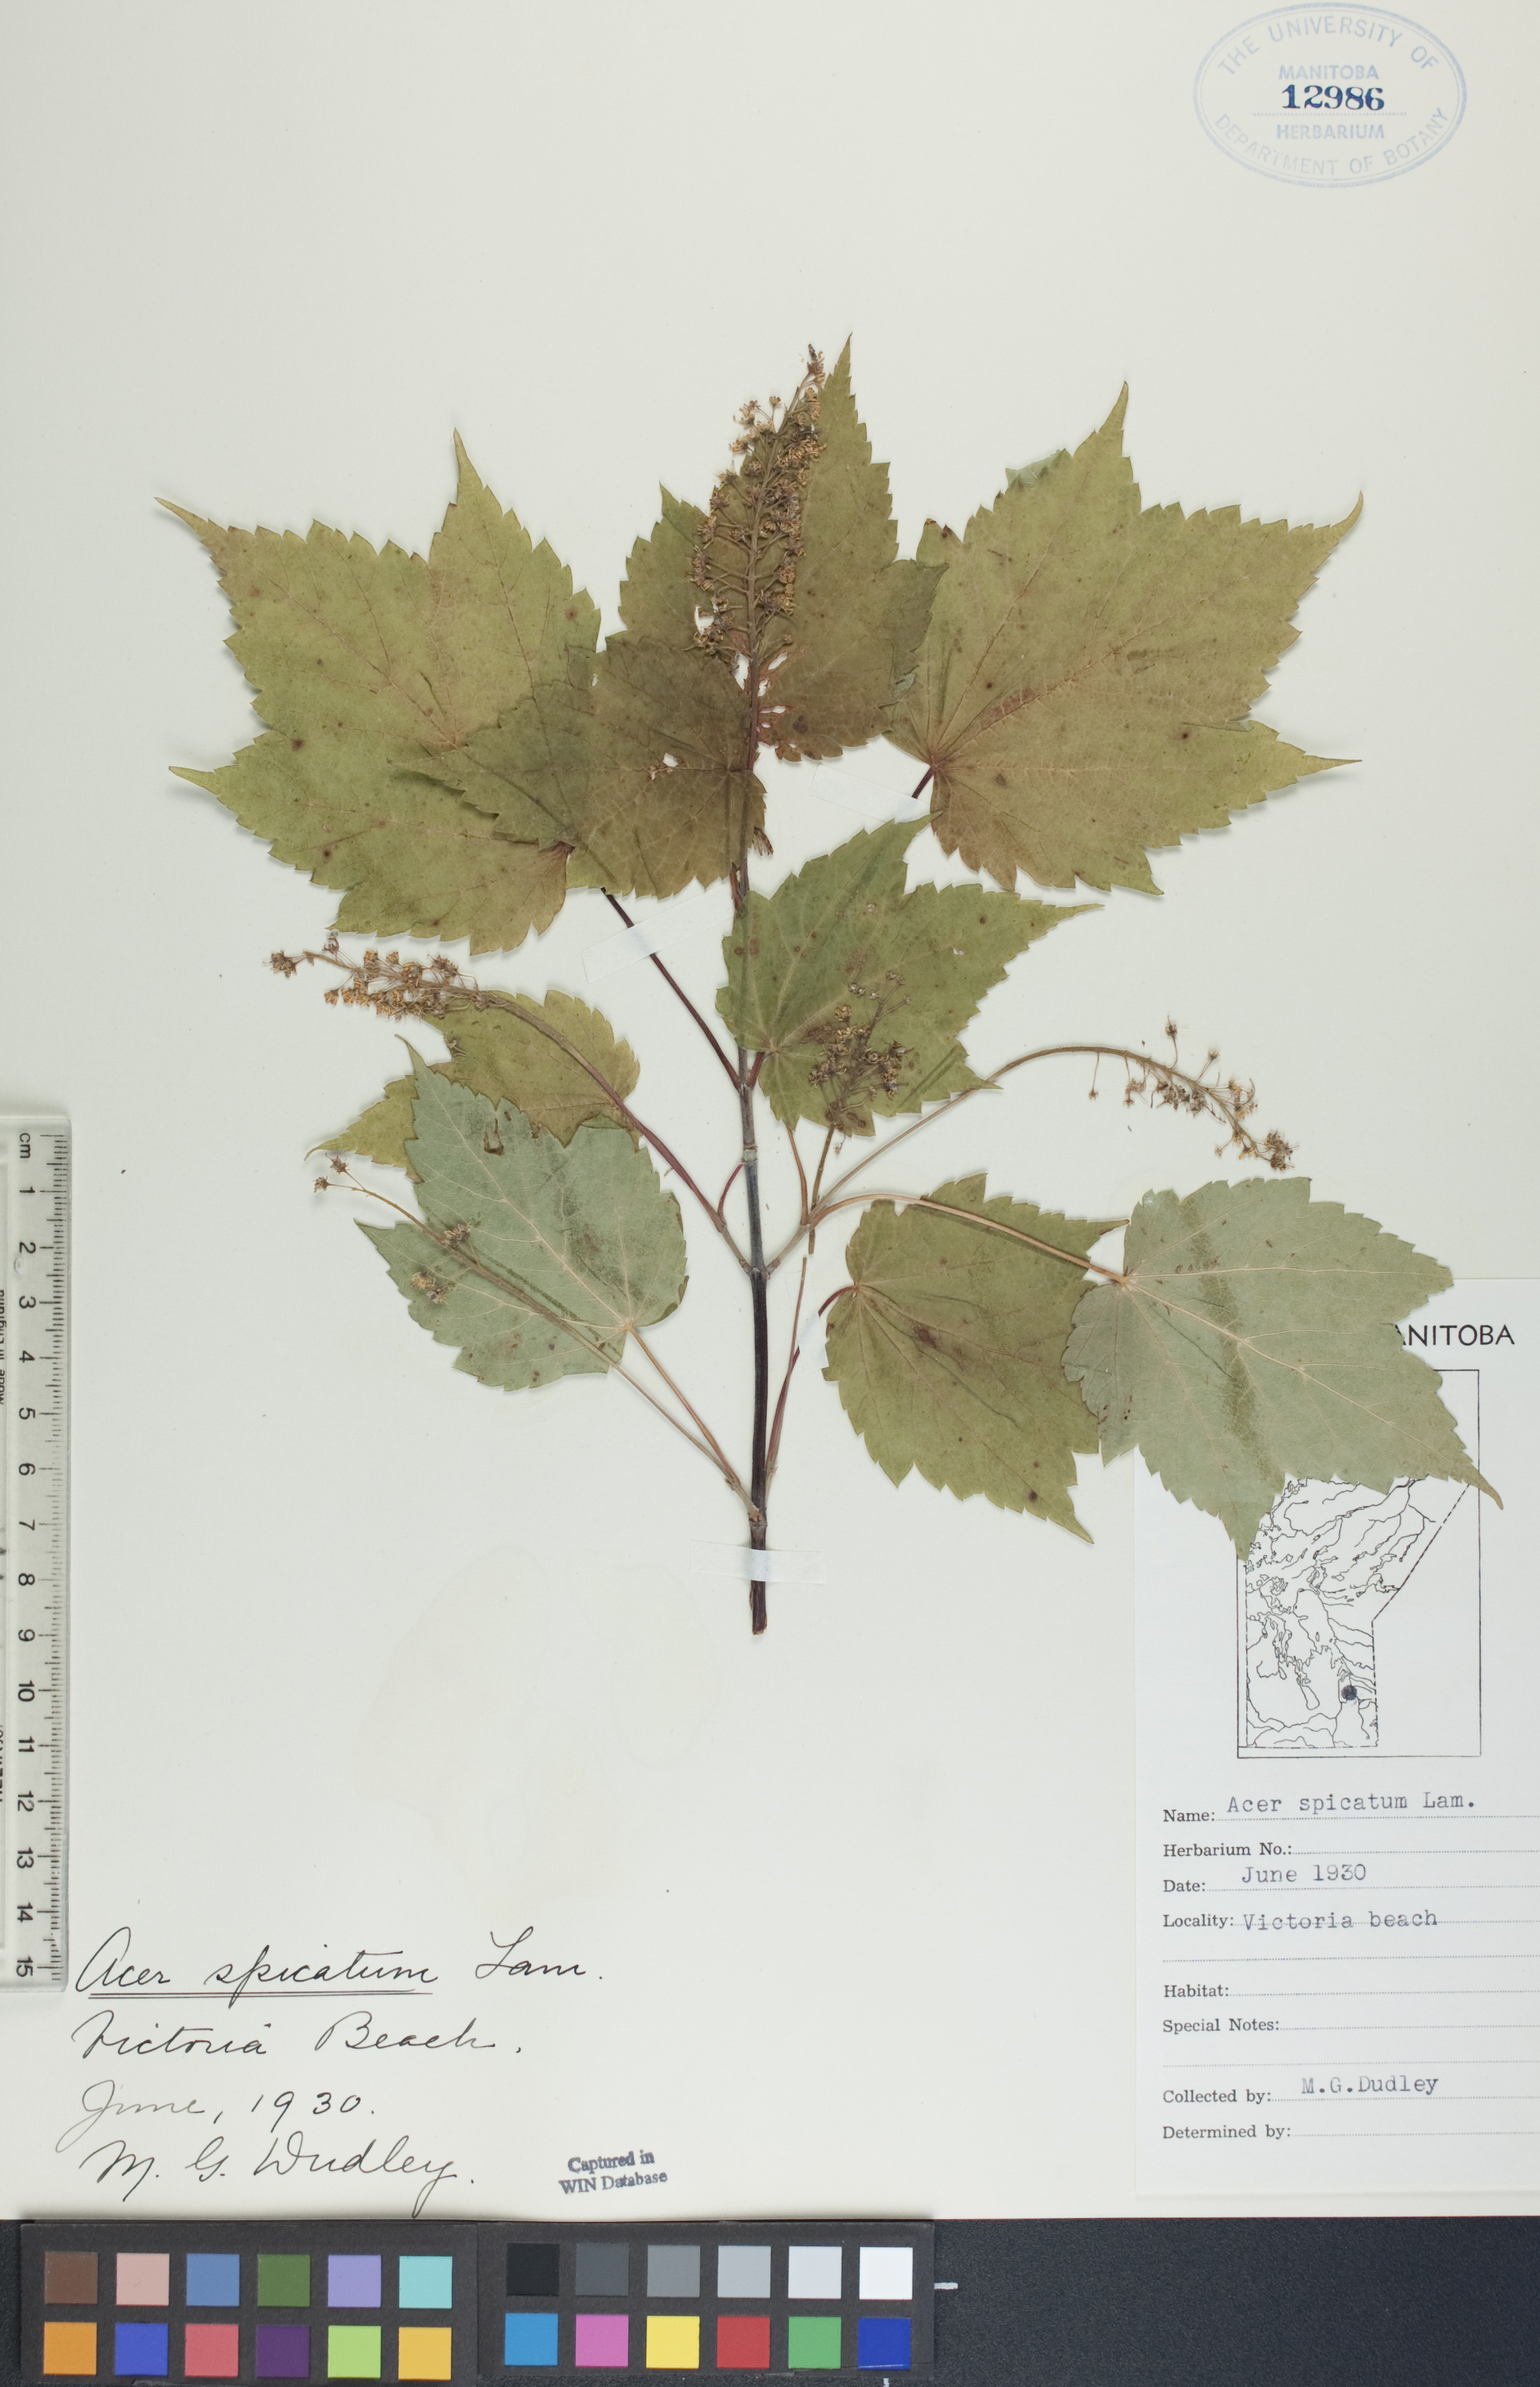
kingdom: Plantae
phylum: Tracheophyta
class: Magnoliopsida
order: Sapindales
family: Sapindaceae
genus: Acer
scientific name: Acer spicatum
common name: Mountain maple
